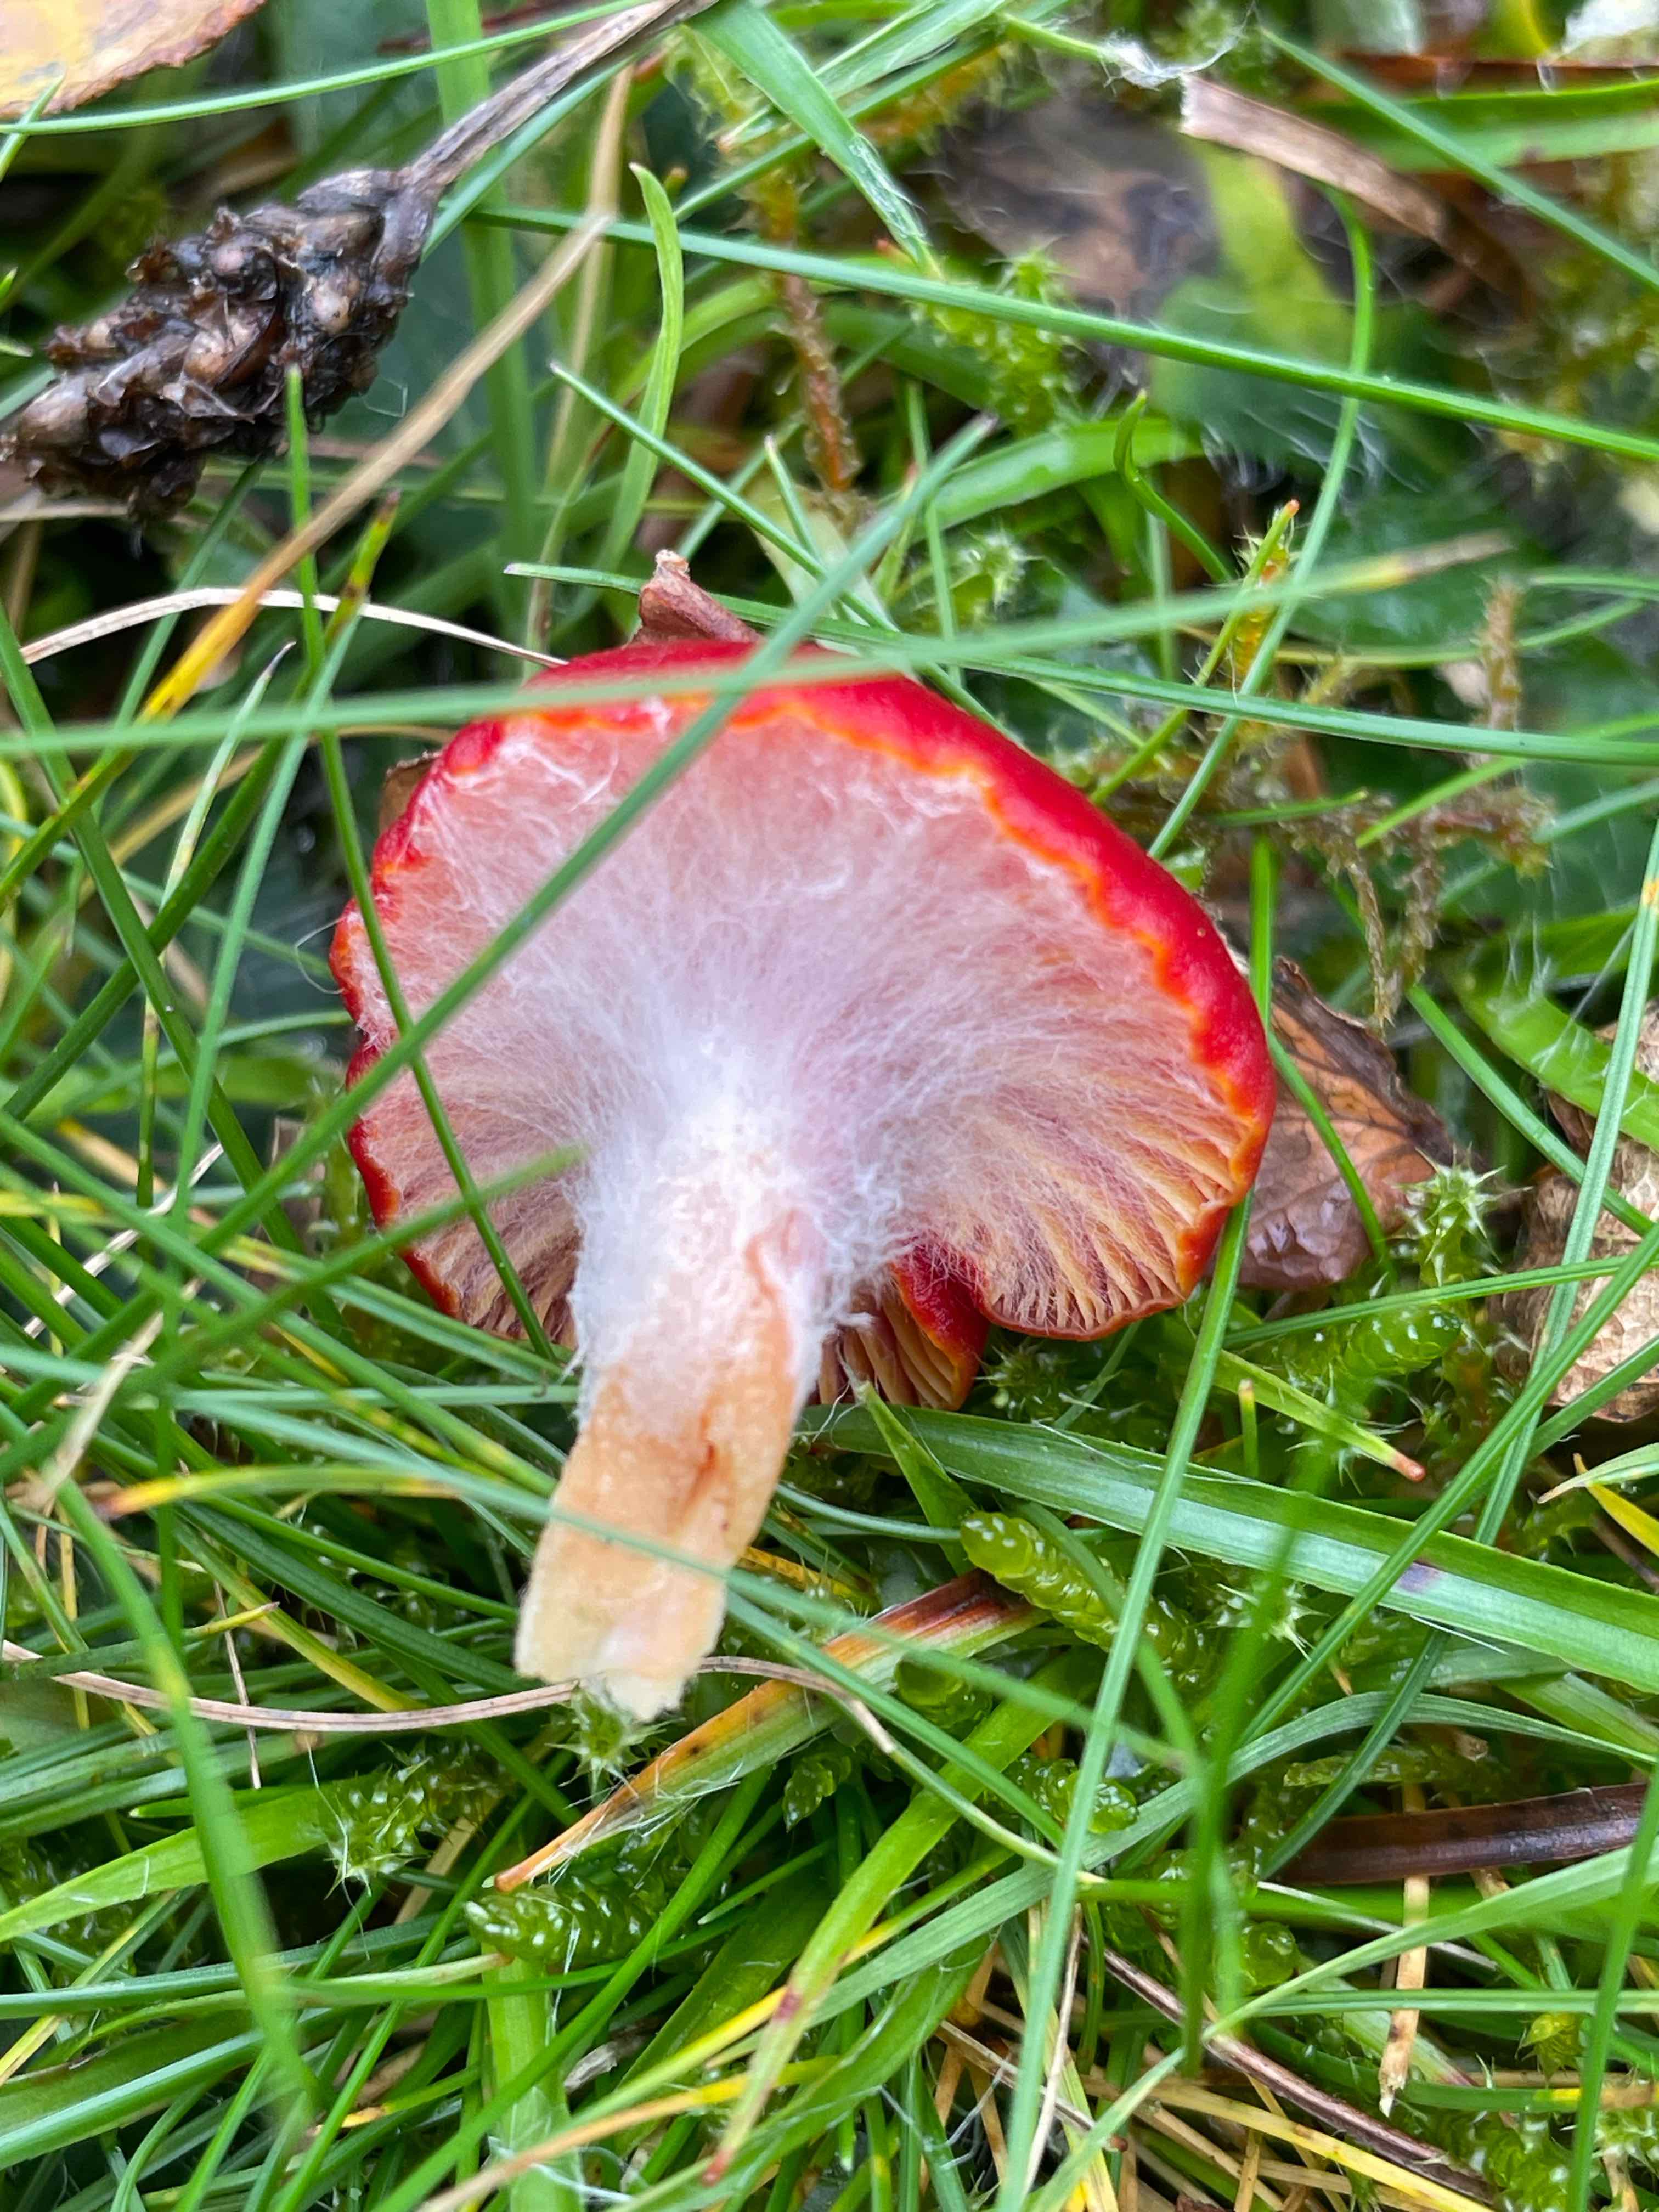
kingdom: Fungi
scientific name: Fungi
